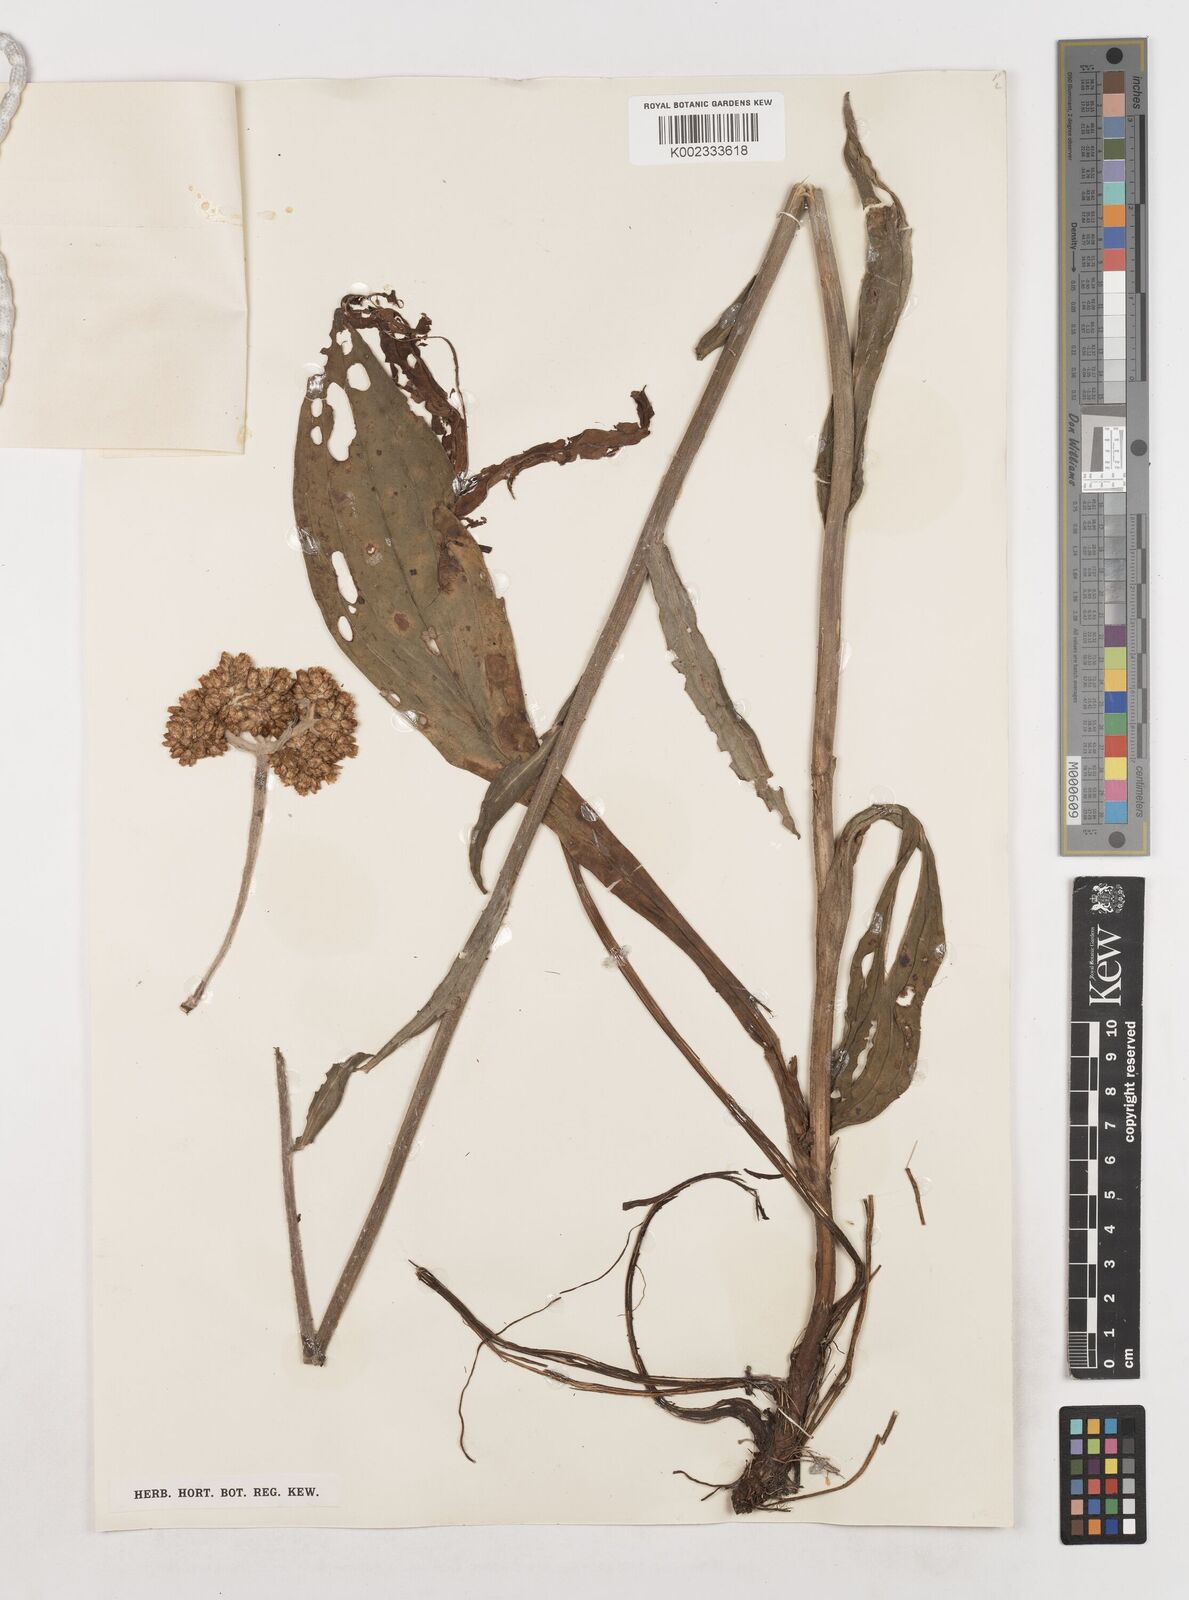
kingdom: Plantae
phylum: Tracheophyta
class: Magnoliopsida
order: Asterales
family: Asteraceae
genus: Helichrysum
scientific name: Helichrysum globosum
